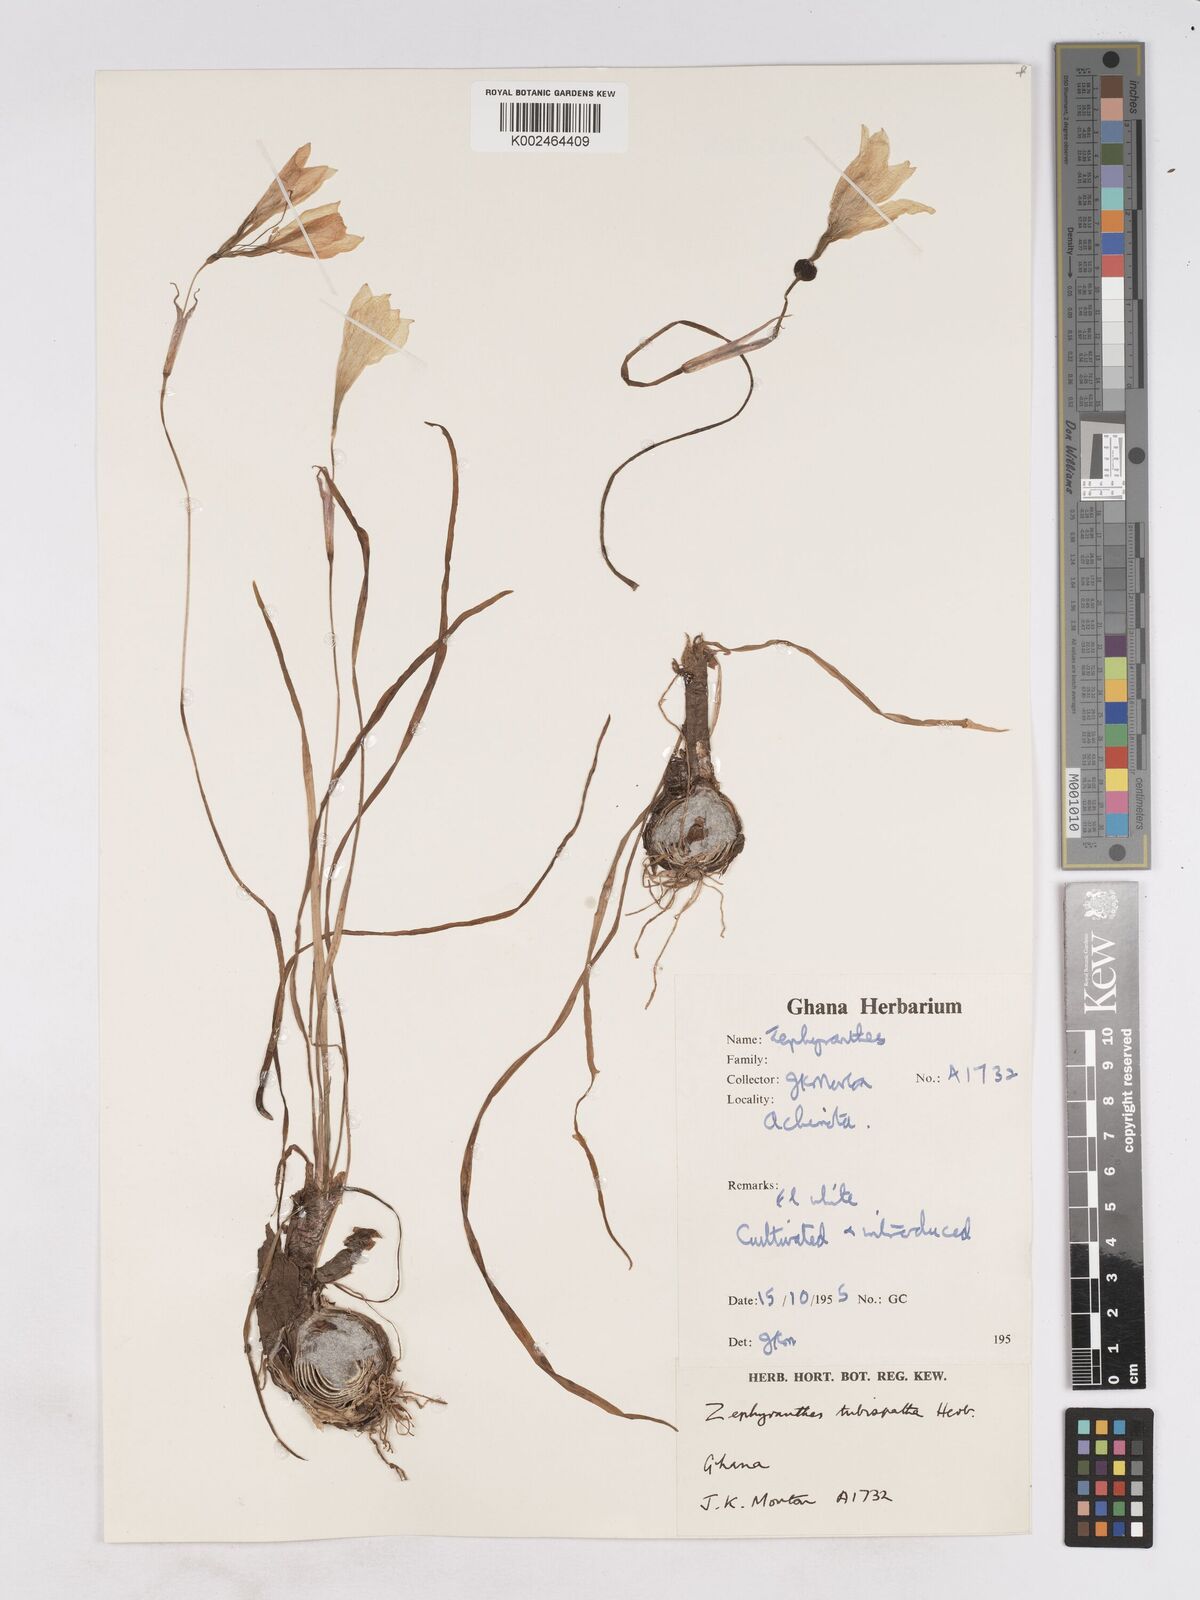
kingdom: Plantae
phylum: Tracheophyta
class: Liliopsida
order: Asparagales
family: Amaryllidaceae
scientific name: Amaryllidaceae
